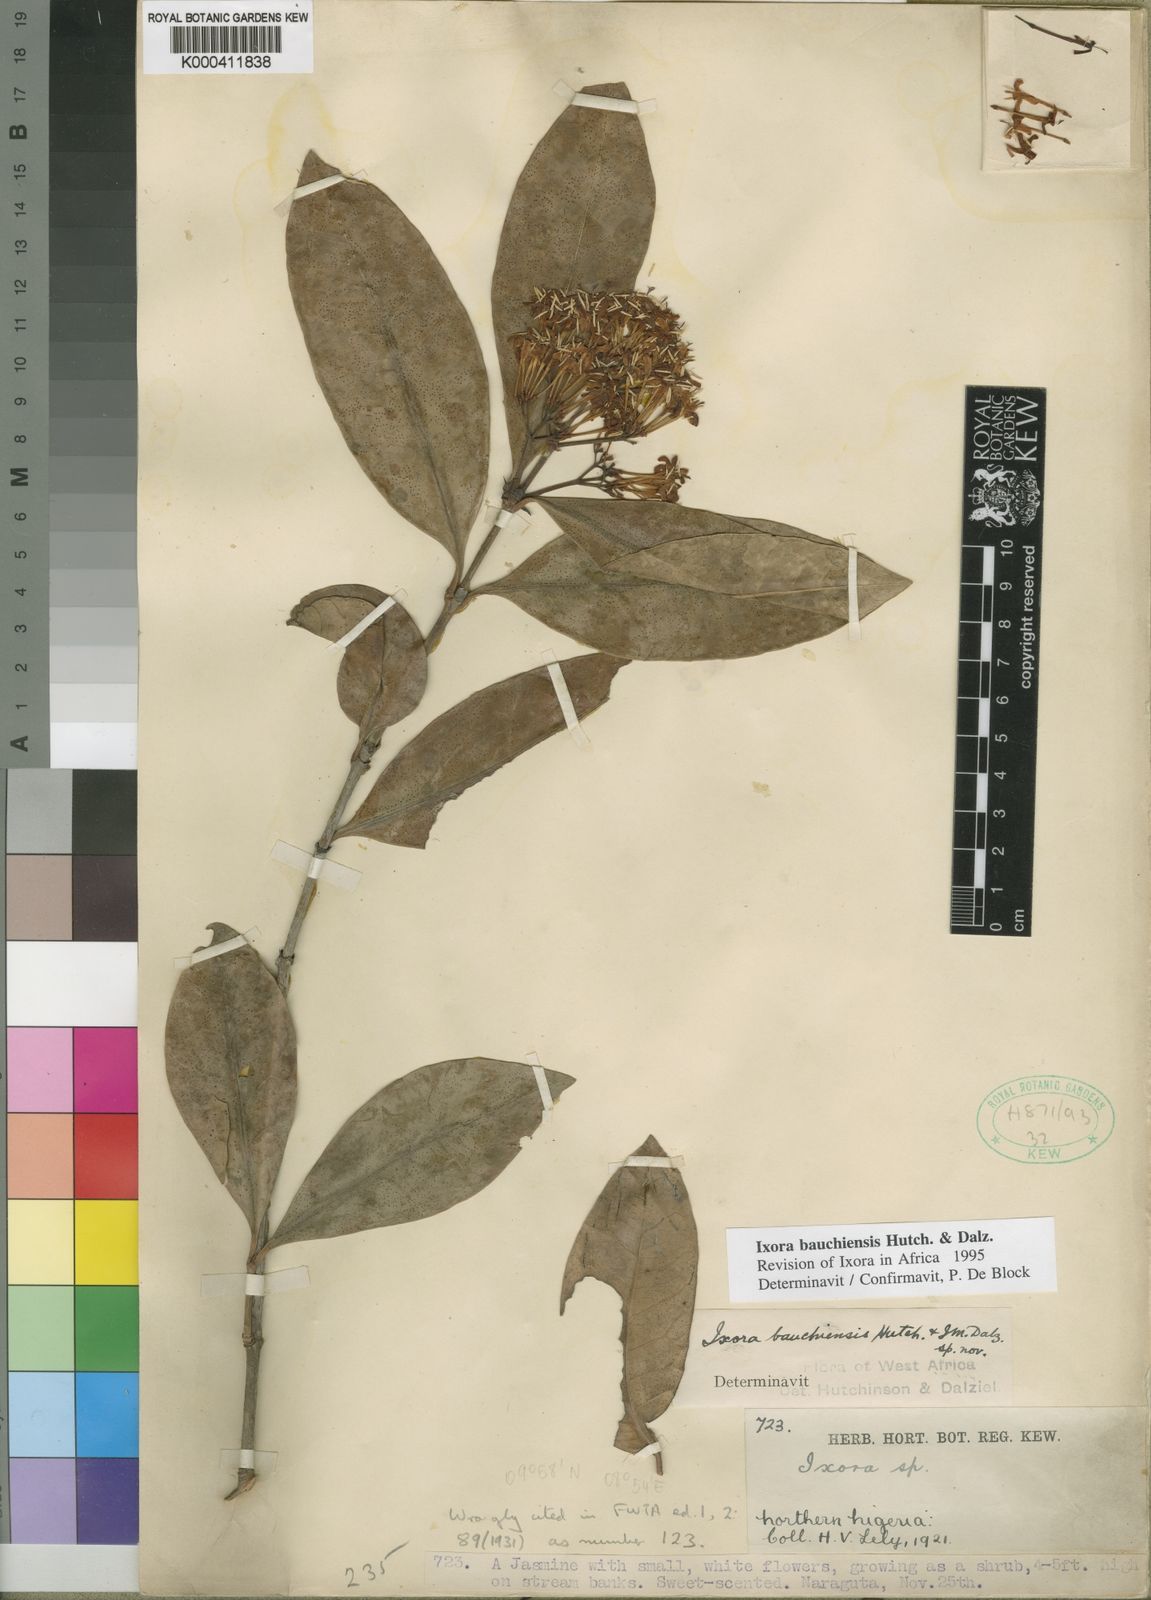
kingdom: Plantae
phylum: Tracheophyta
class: Magnoliopsida
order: Gentianales
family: Rubiaceae
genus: Ixora
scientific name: Ixora bauchiensis
